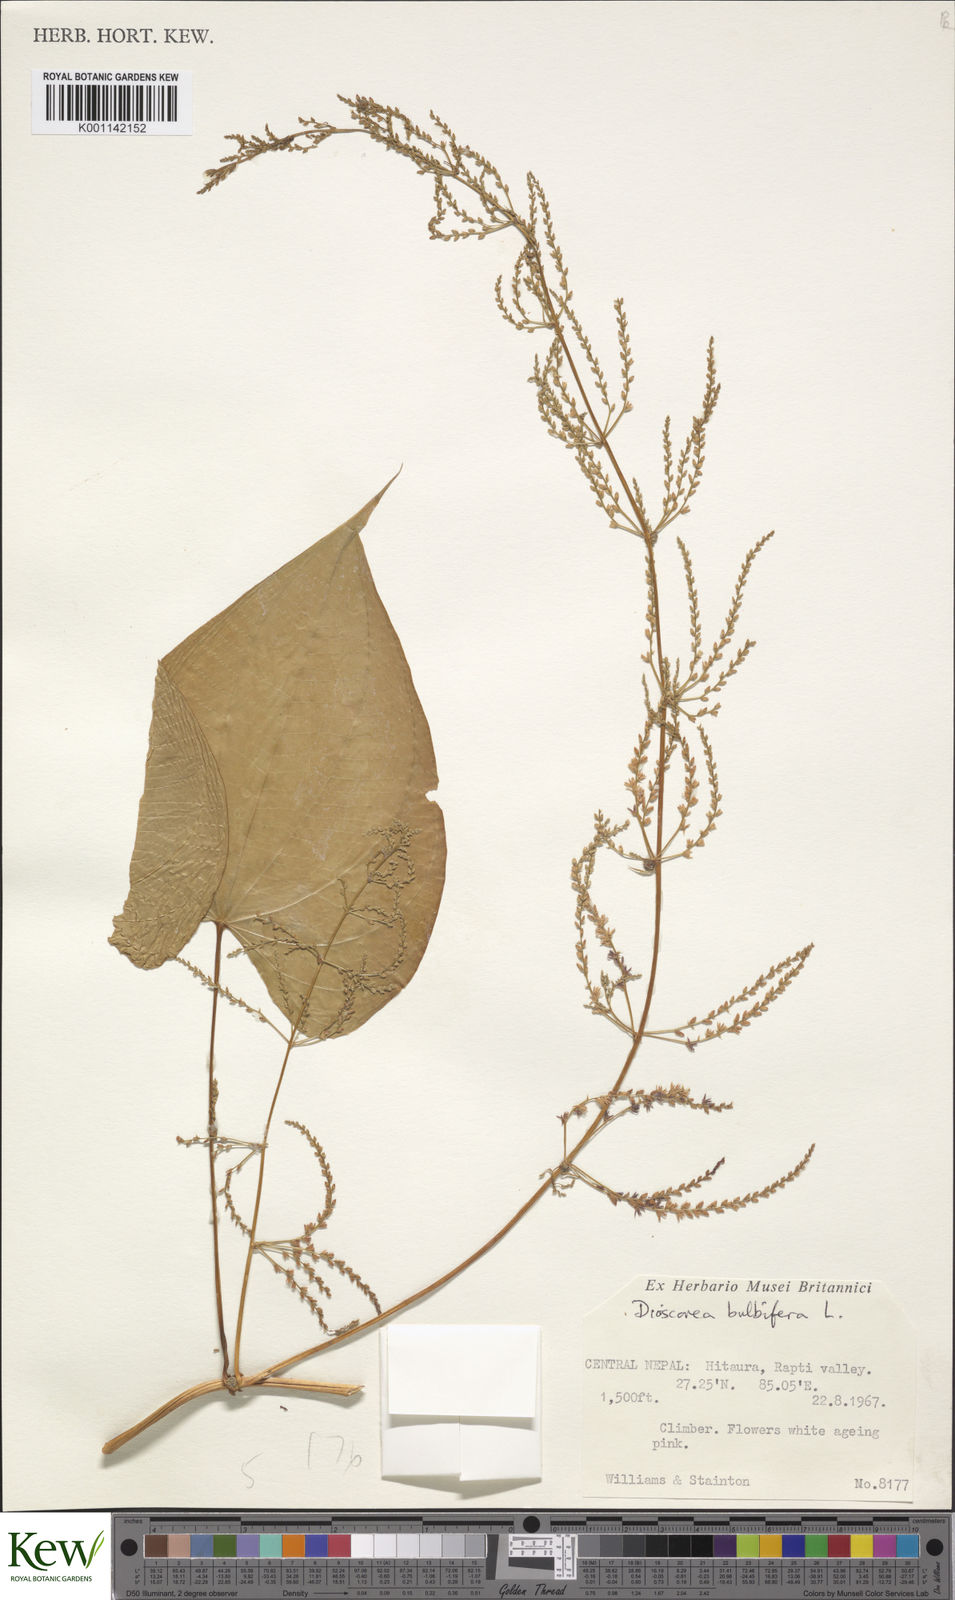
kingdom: Plantae
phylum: Tracheophyta
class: Liliopsida
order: Dioscoreales
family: Dioscoreaceae
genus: Dioscorea
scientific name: Dioscorea bulbifera
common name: Air yam
